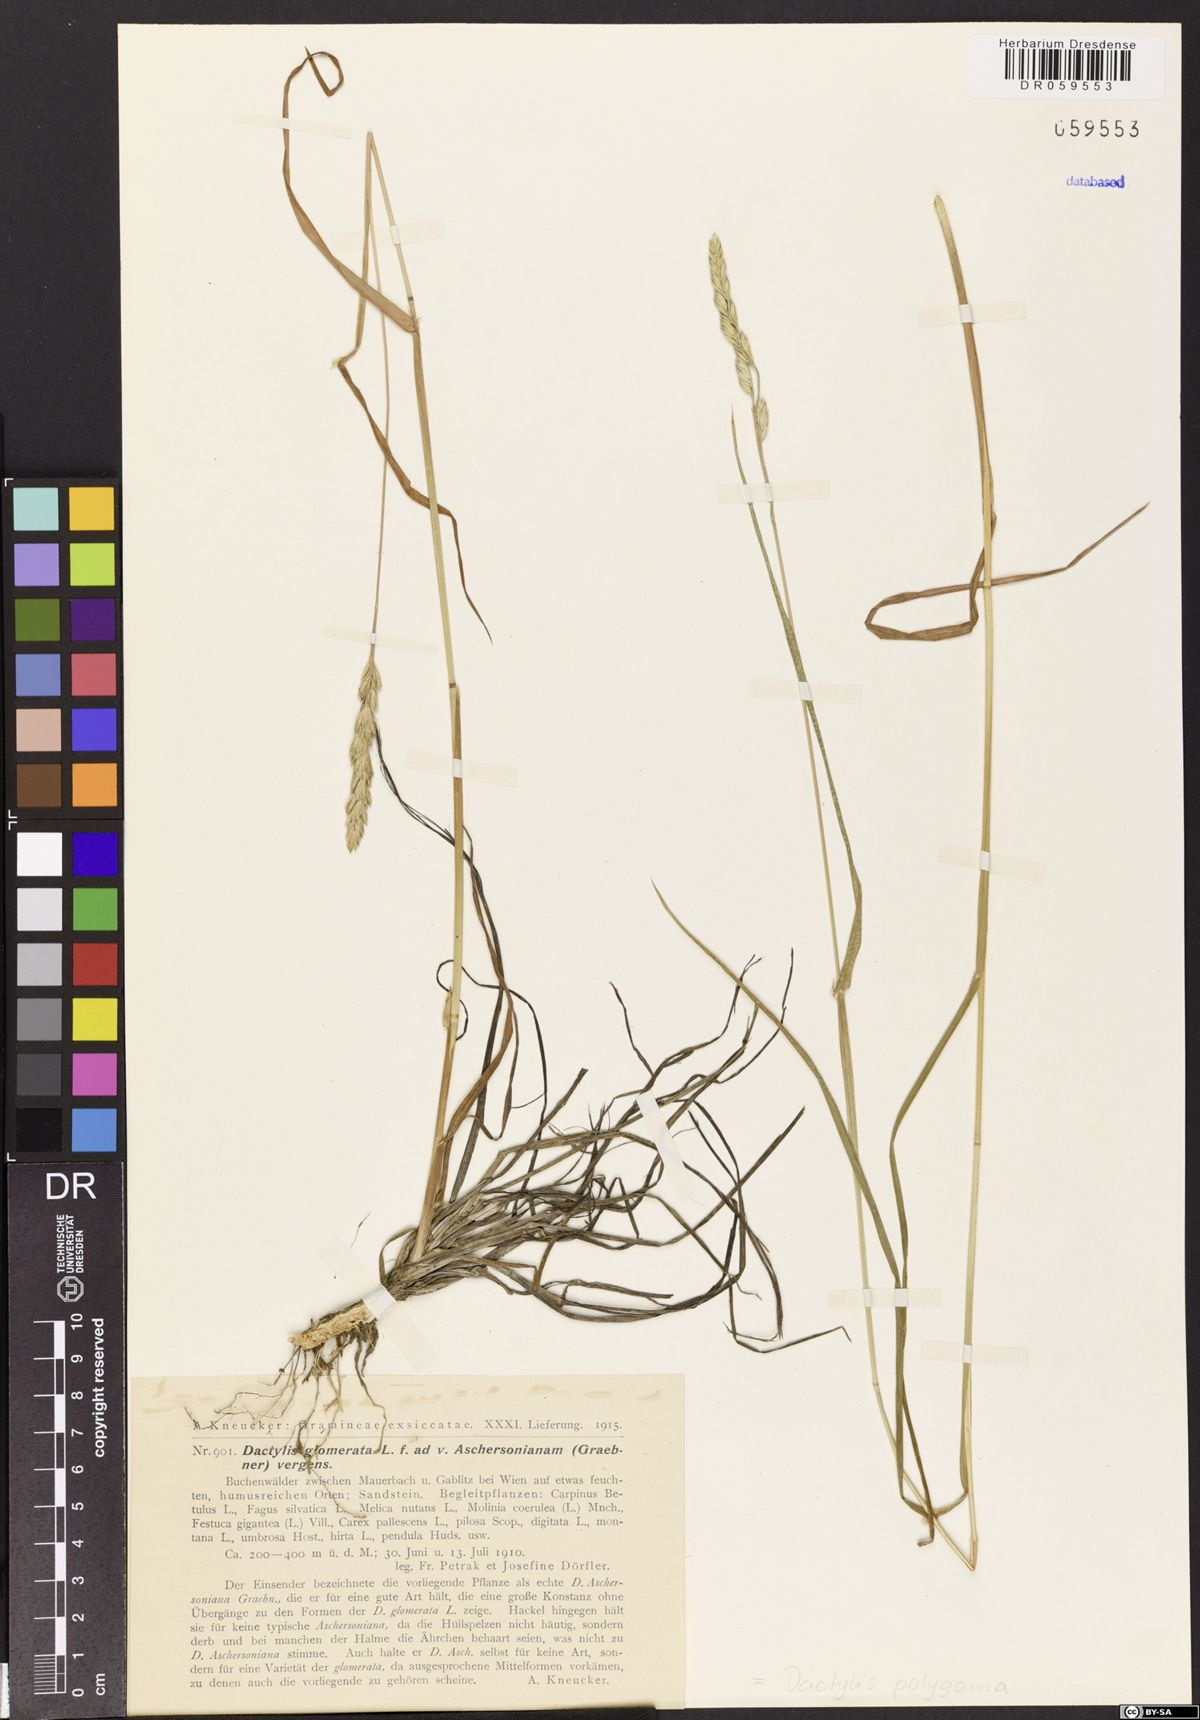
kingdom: Plantae
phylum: Tracheophyta
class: Liliopsida
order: Poales
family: Poaceae
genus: Dactylis
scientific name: Dactylis glomerata
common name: Orchardgrass
